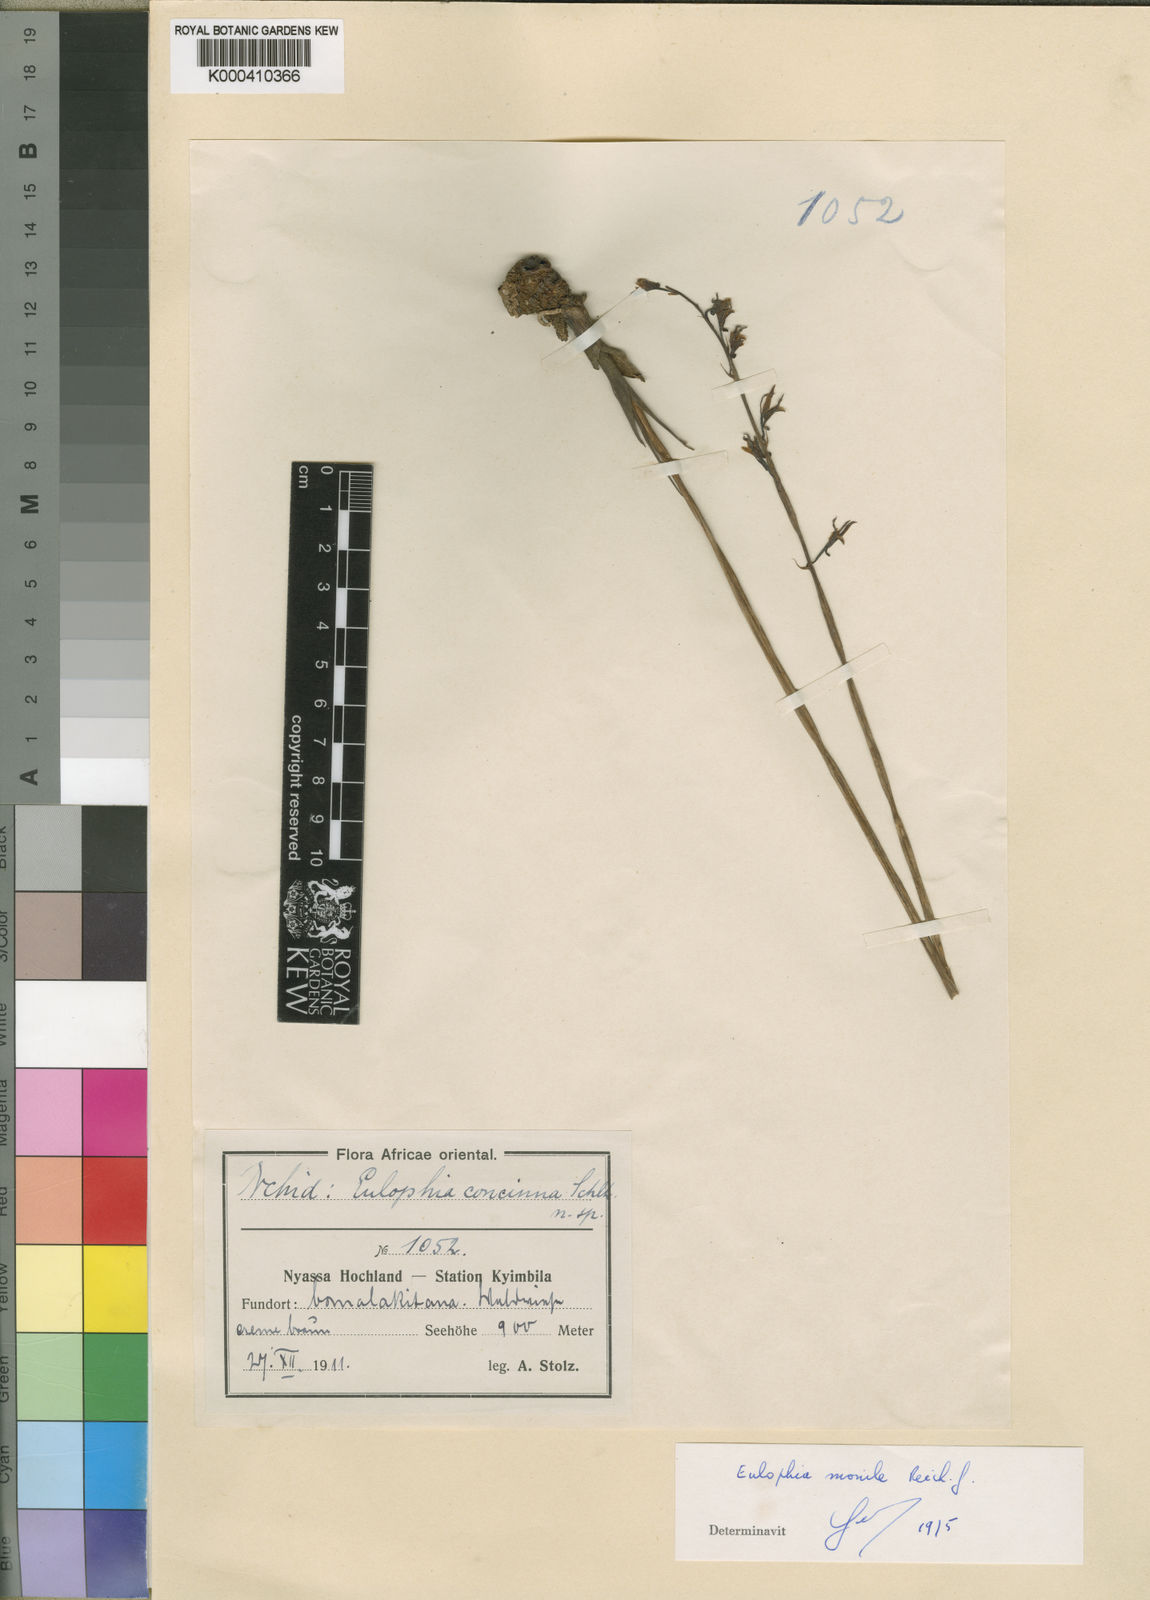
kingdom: Plantae
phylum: Tracheophyta
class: Liliopsida
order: Asparagales
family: Orchidaceae
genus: Eulophia
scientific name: Eulophia monile
